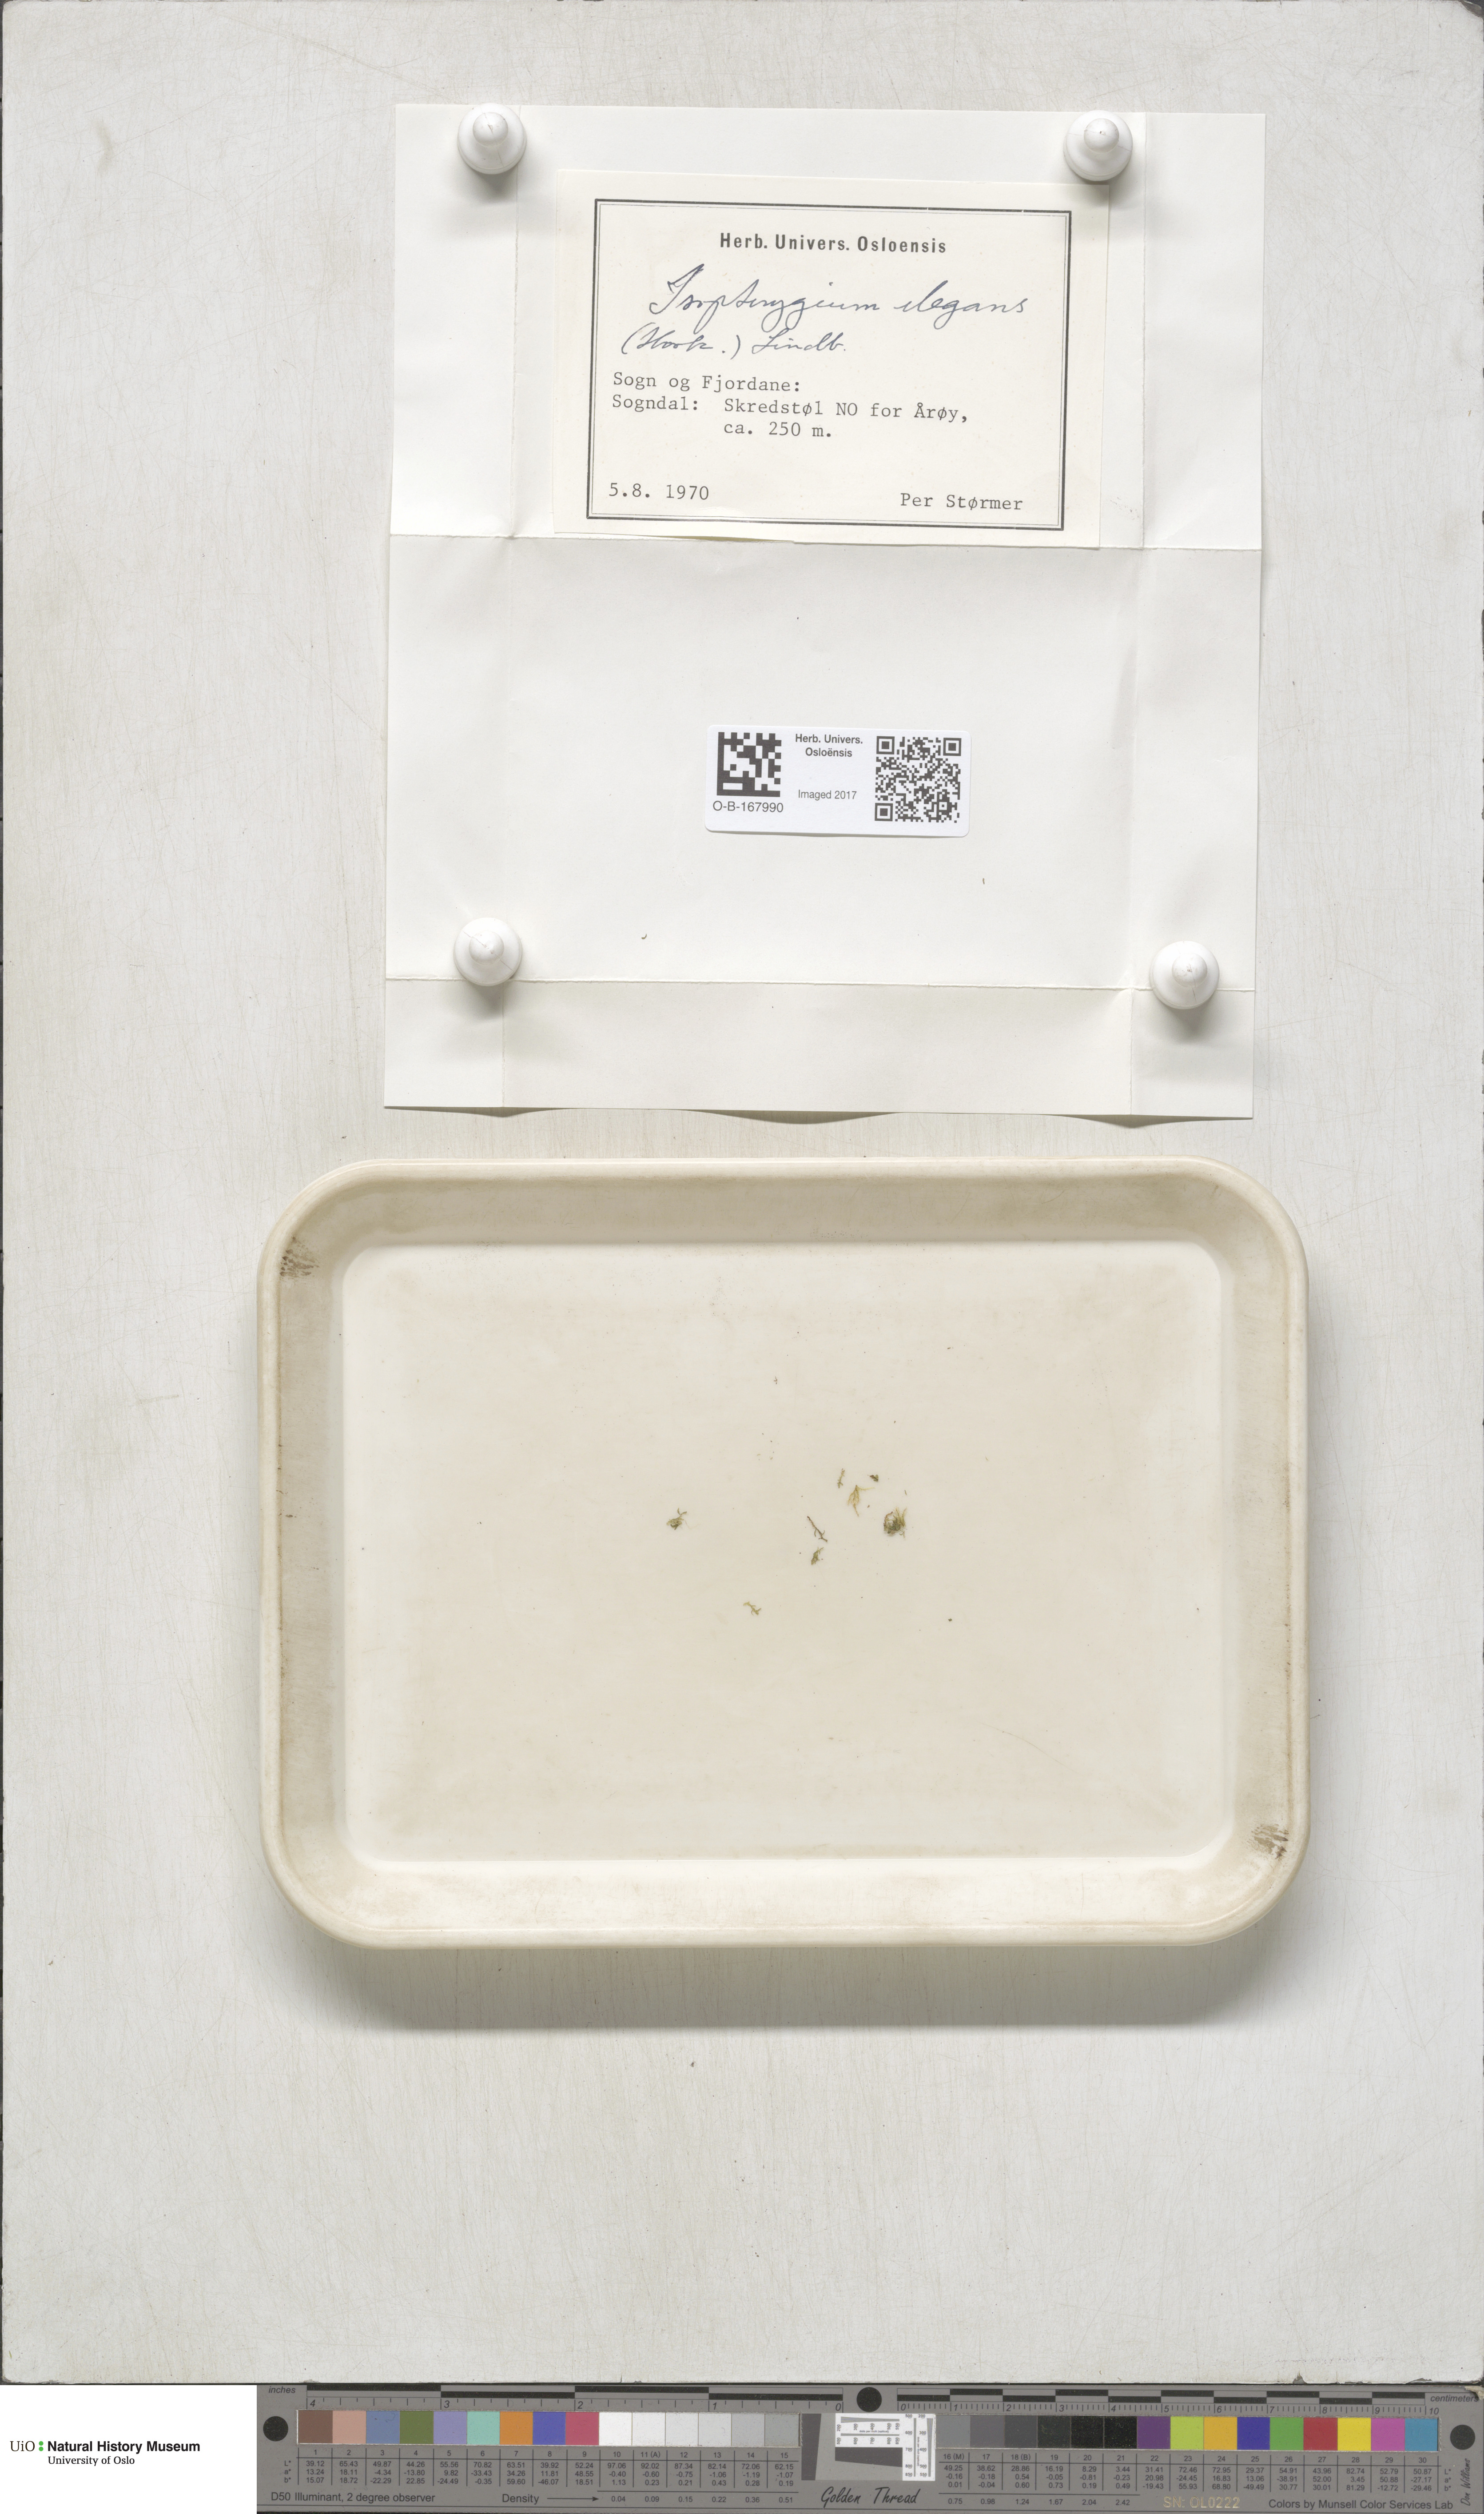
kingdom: Plantae
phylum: Bryophyta
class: Bryopsida
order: Hypnales
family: Plagiotheciaceae
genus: Pseudotaxiphyllum
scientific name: Pseudotaxiphyllum elegans
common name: Elegant silk moss
